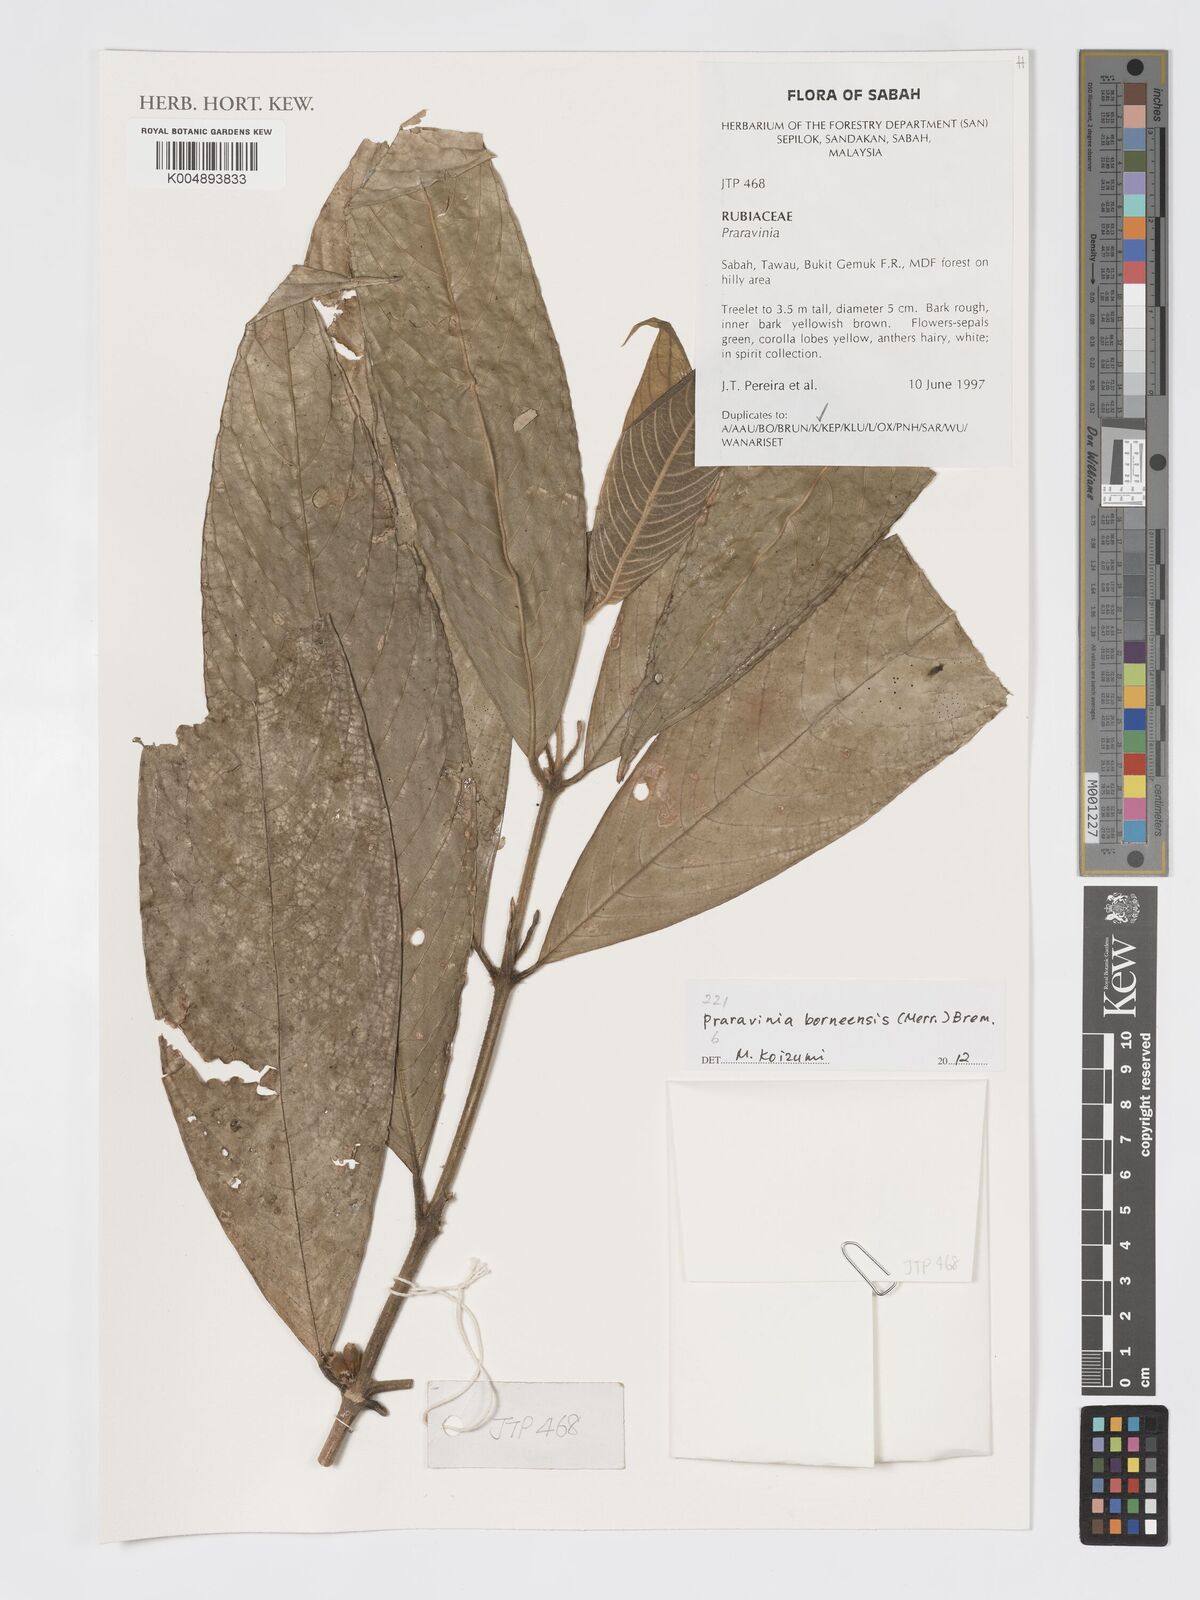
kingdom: Plantae
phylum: Tracheophyta
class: Magnoliopsida
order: Gentianales
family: Rubiaceae
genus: Praravinia
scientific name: Praravinia borneensis
